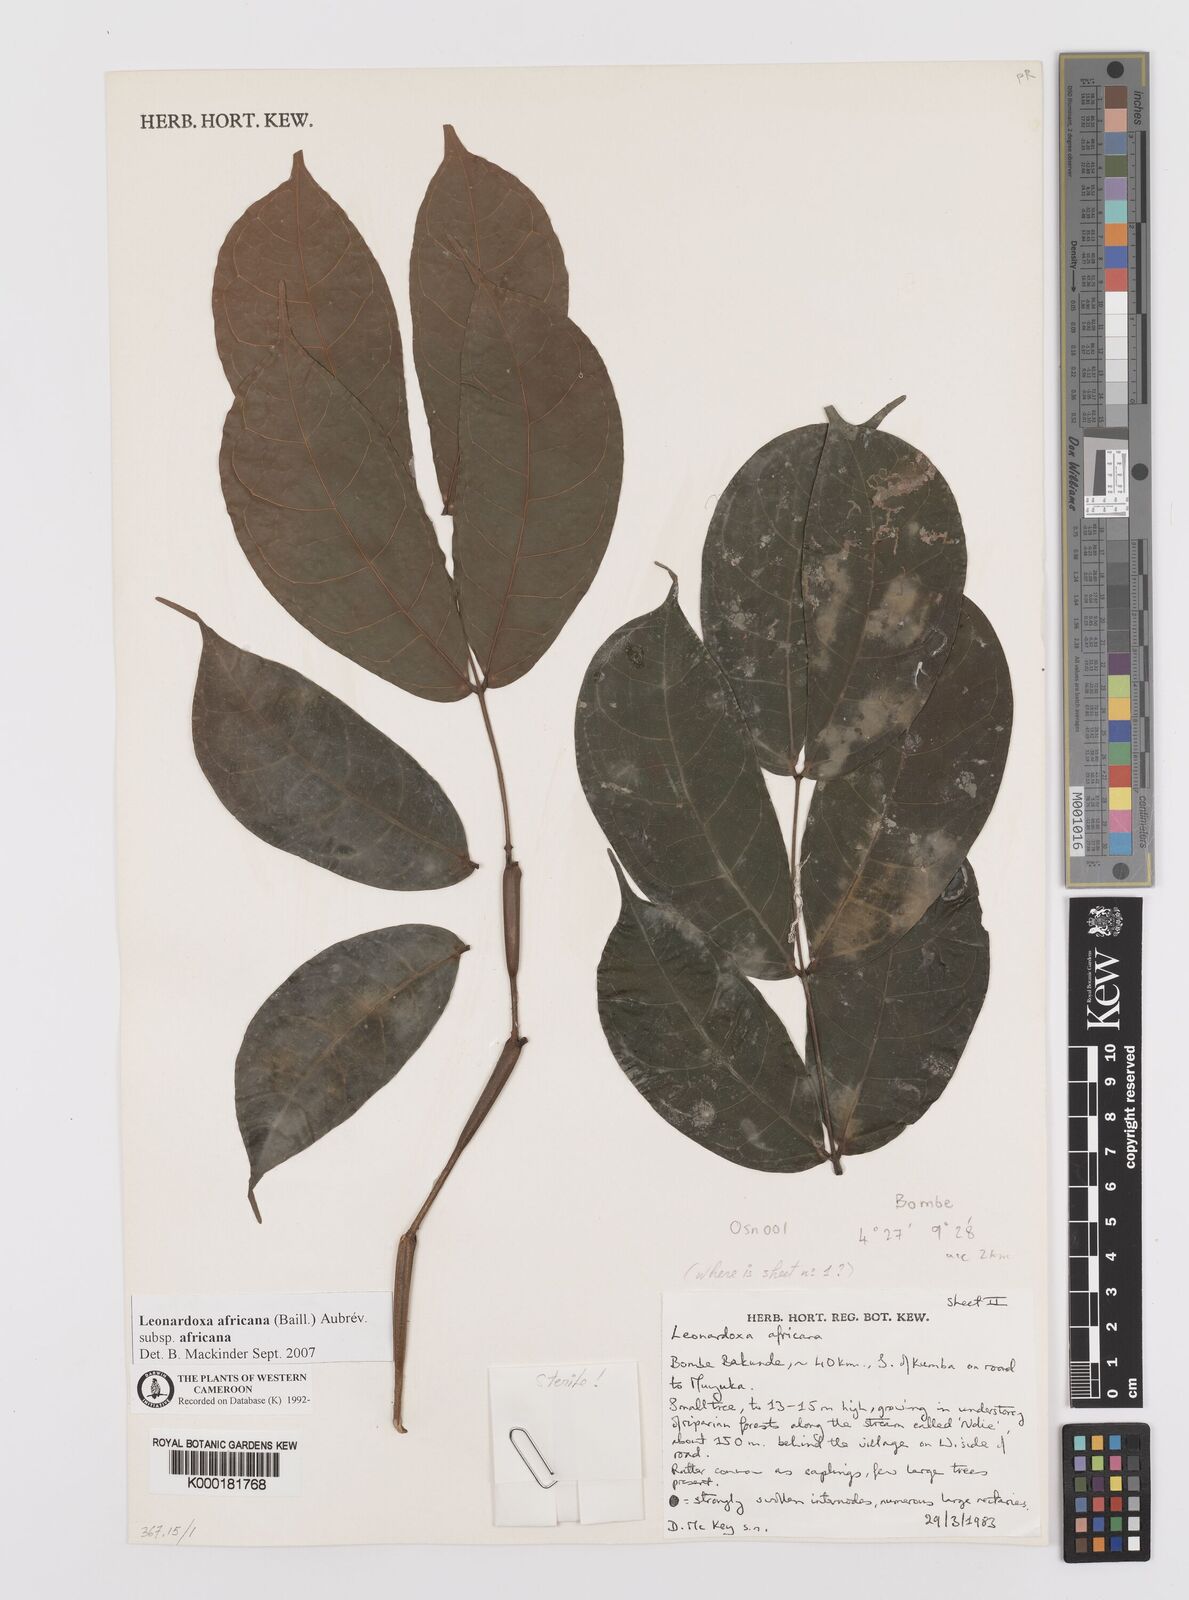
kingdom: Plantae
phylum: Tracheophyta
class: Magnoliopsida
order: Fabales
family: Fabaceae
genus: Leonardoxa
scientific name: Leonardoxa
